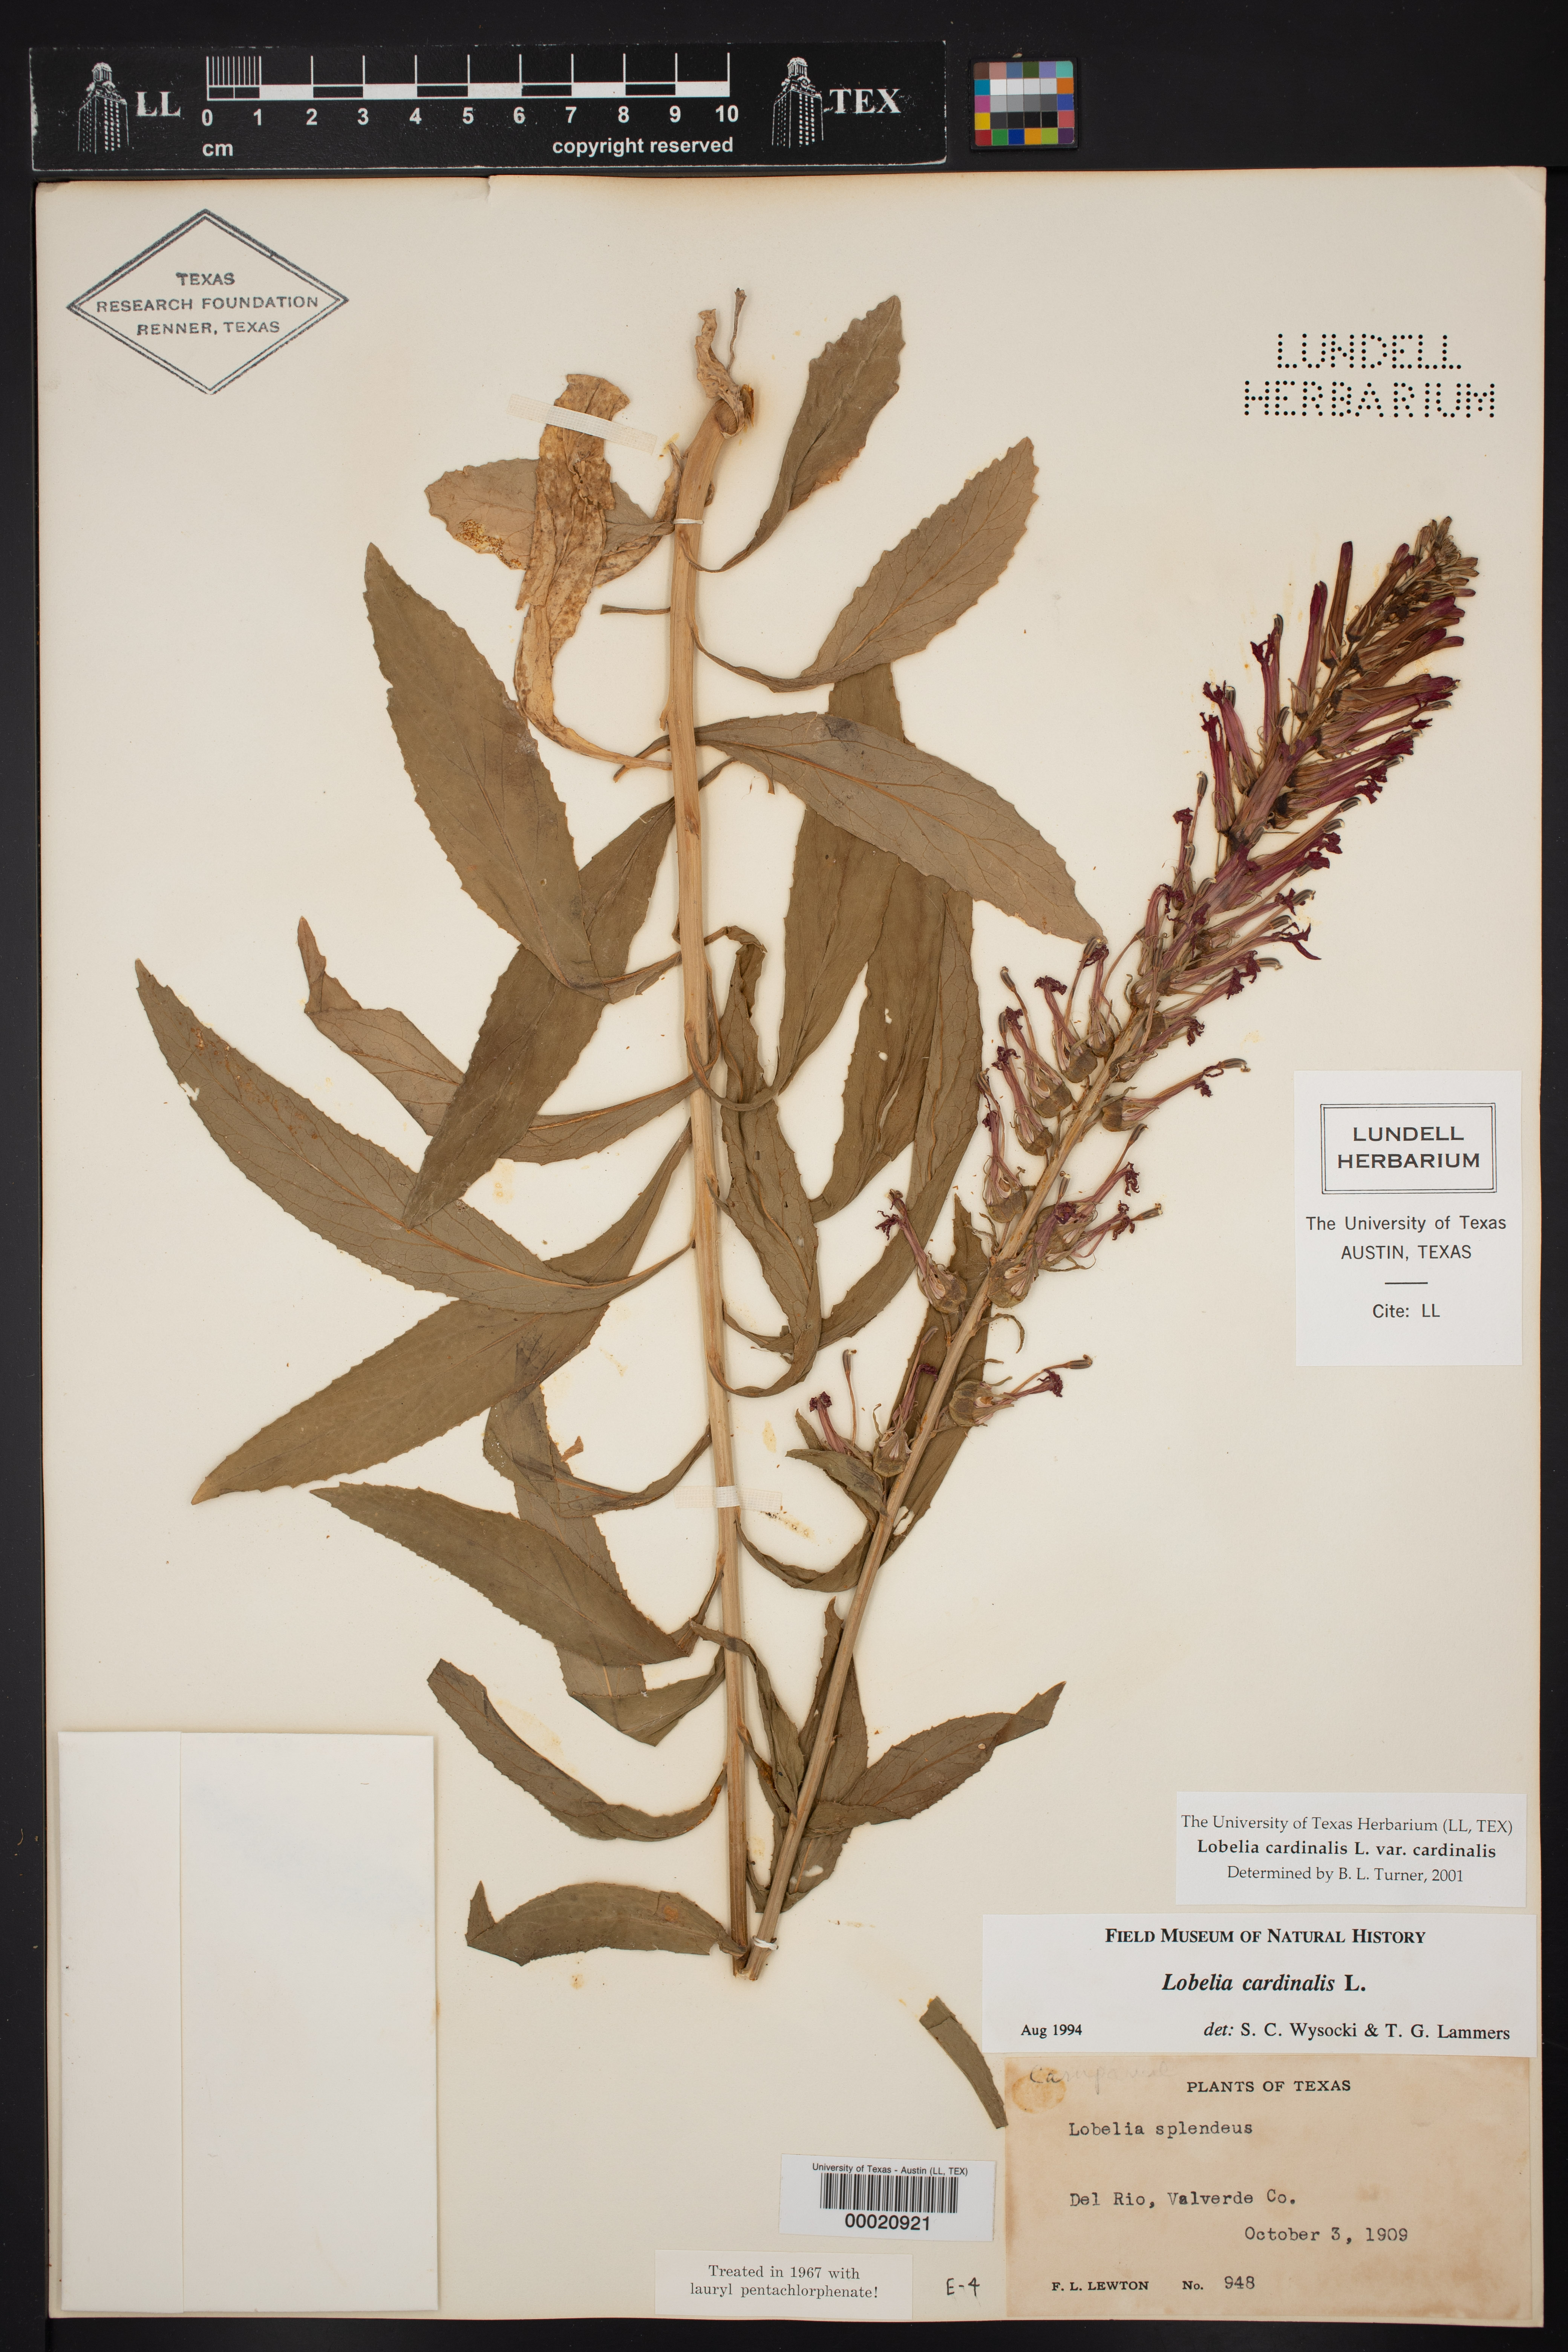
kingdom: Plantae
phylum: Tracheophyta
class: Magnoliopsida
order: Asterales
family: Campanulaceae
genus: Lobelia
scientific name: Lobelia cardinalis
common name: Cardinal flower
